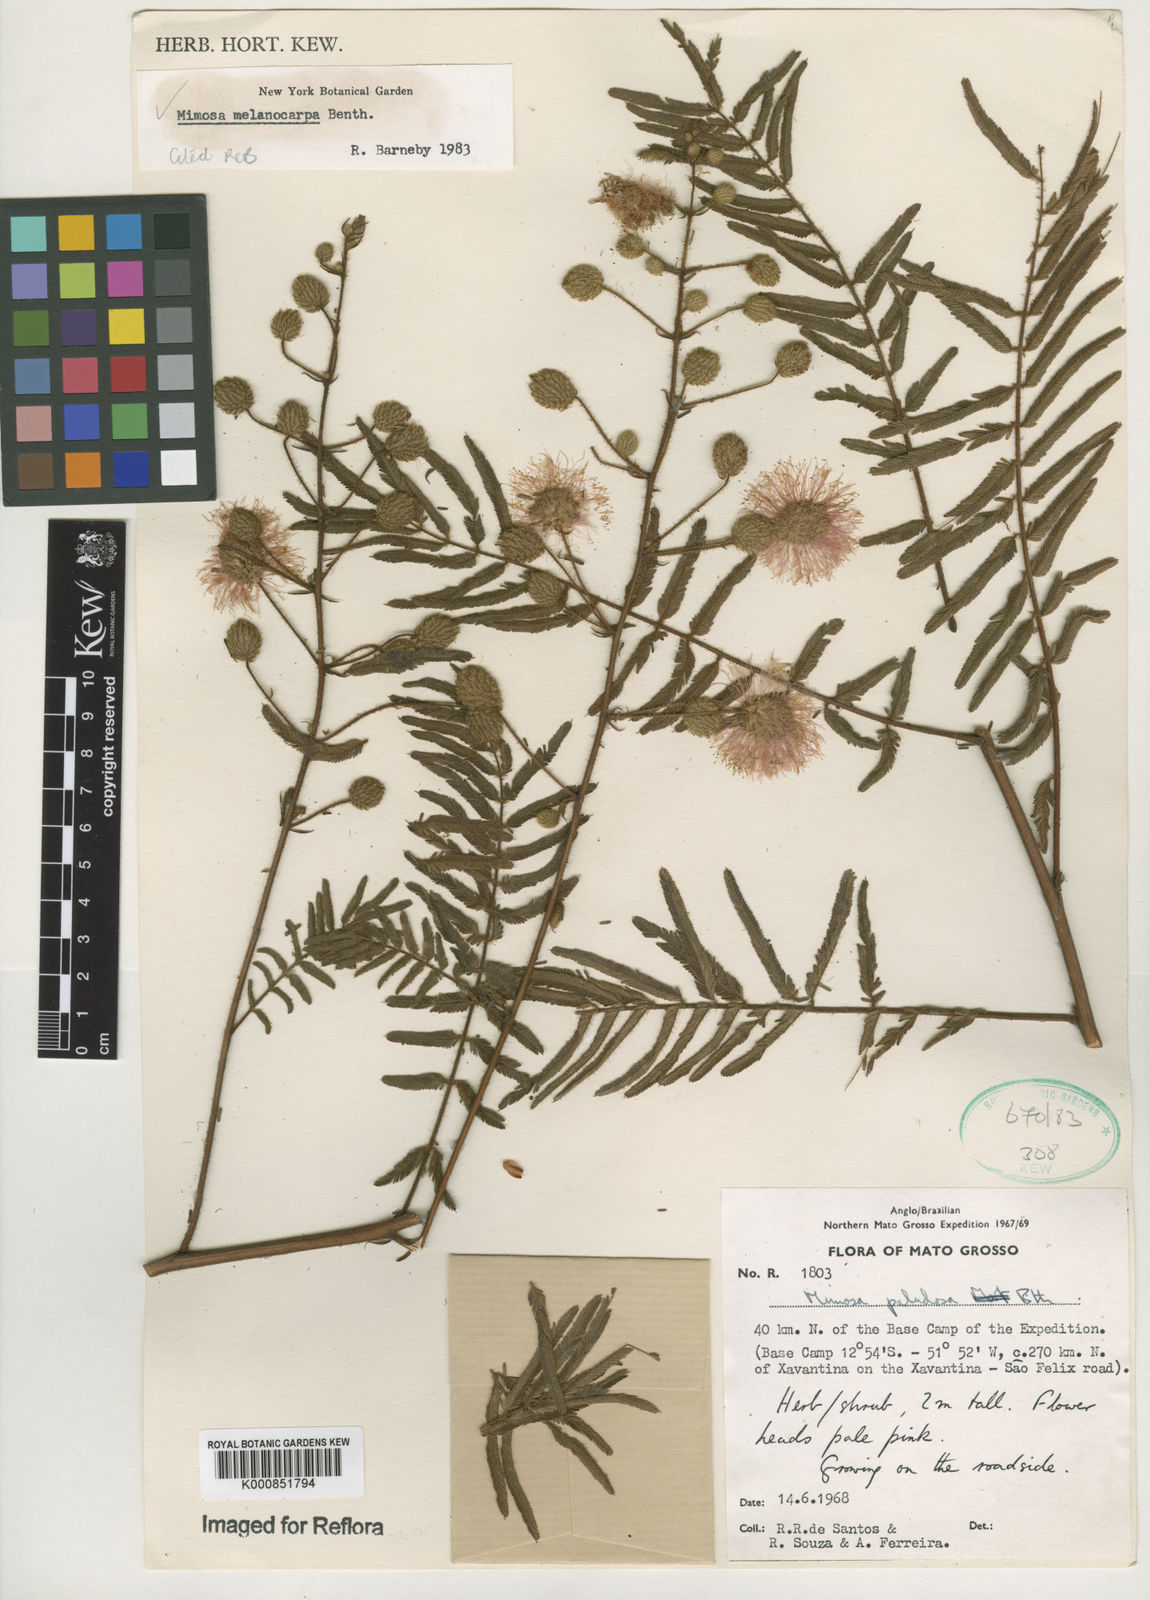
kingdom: Plantae
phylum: Tracheophyta
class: Magnoliopsida
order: Fabales
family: Fabaceae
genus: Mimosa
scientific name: Mimosa melanocarpa
